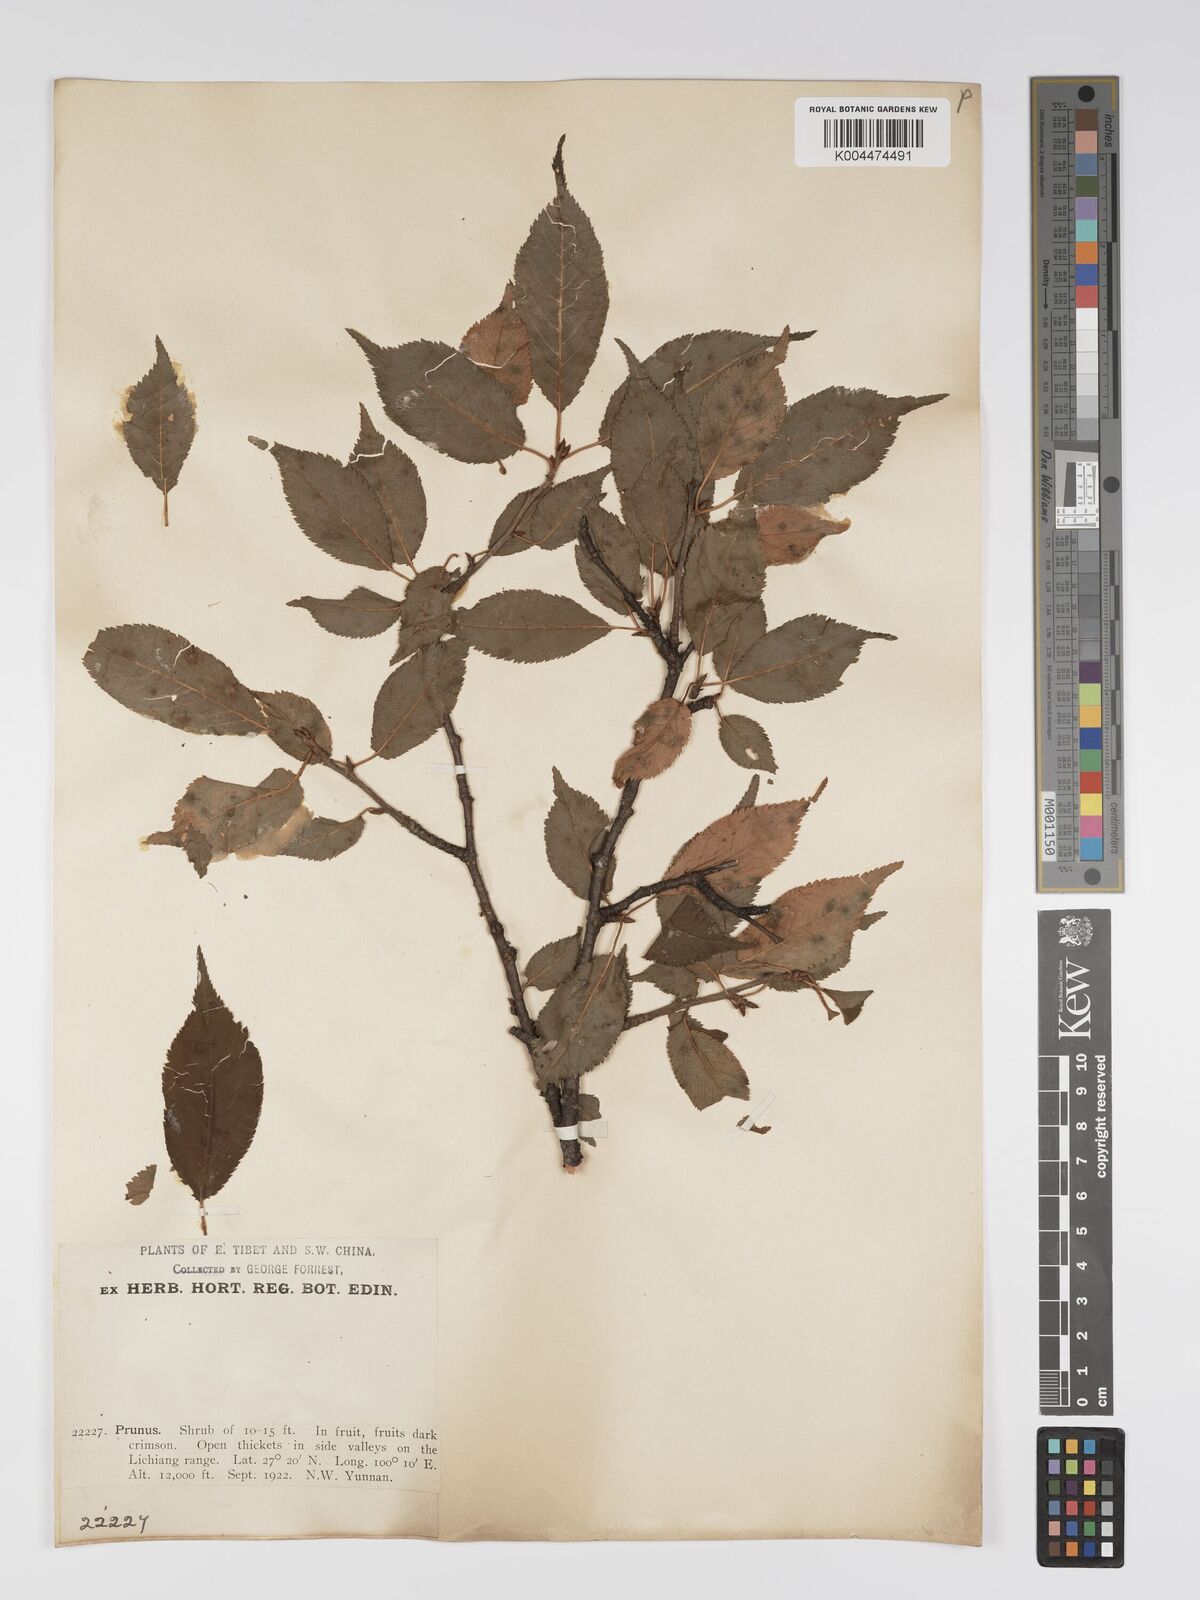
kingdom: Plantae
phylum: Tracheophyta
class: Magnoliopsida
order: Rosales
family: Rosaceae
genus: Prunus
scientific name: Prunus
